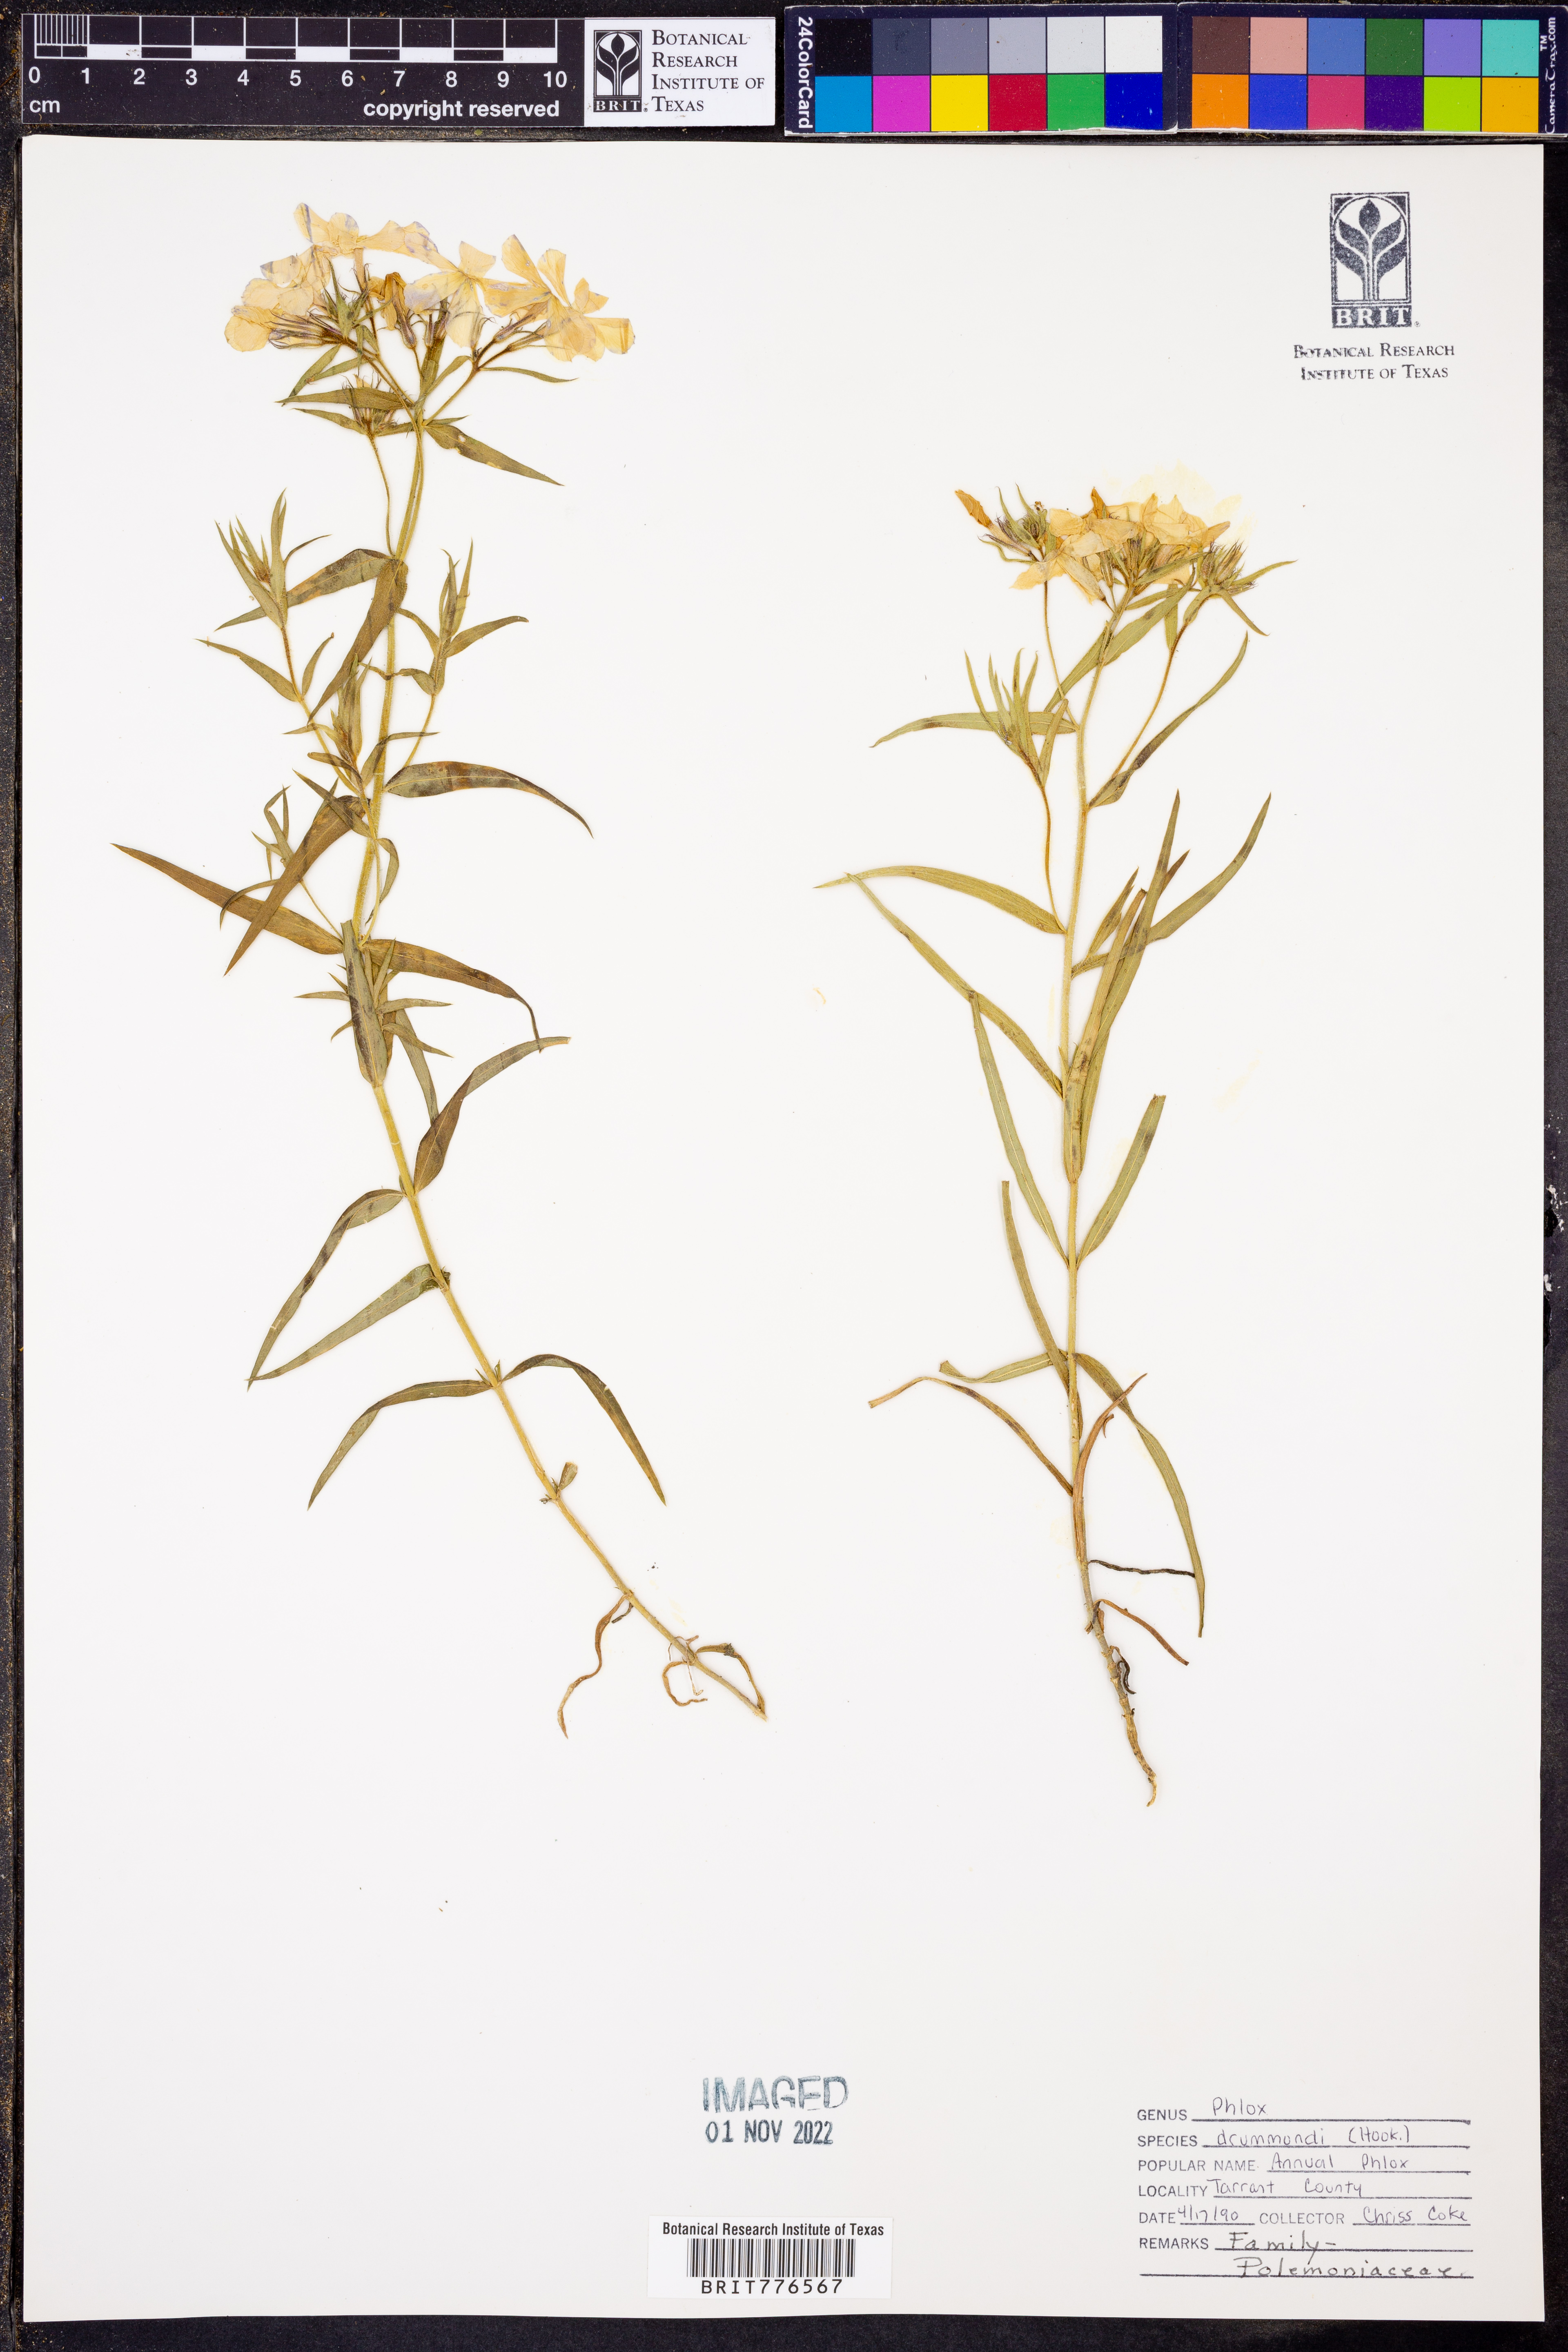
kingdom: Plantae
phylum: Tracheophyta
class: Magnoliopsida
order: Ericales
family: Polemoniaceae
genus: Phlox
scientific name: Phlox drummondii
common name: Drummond's phlox
